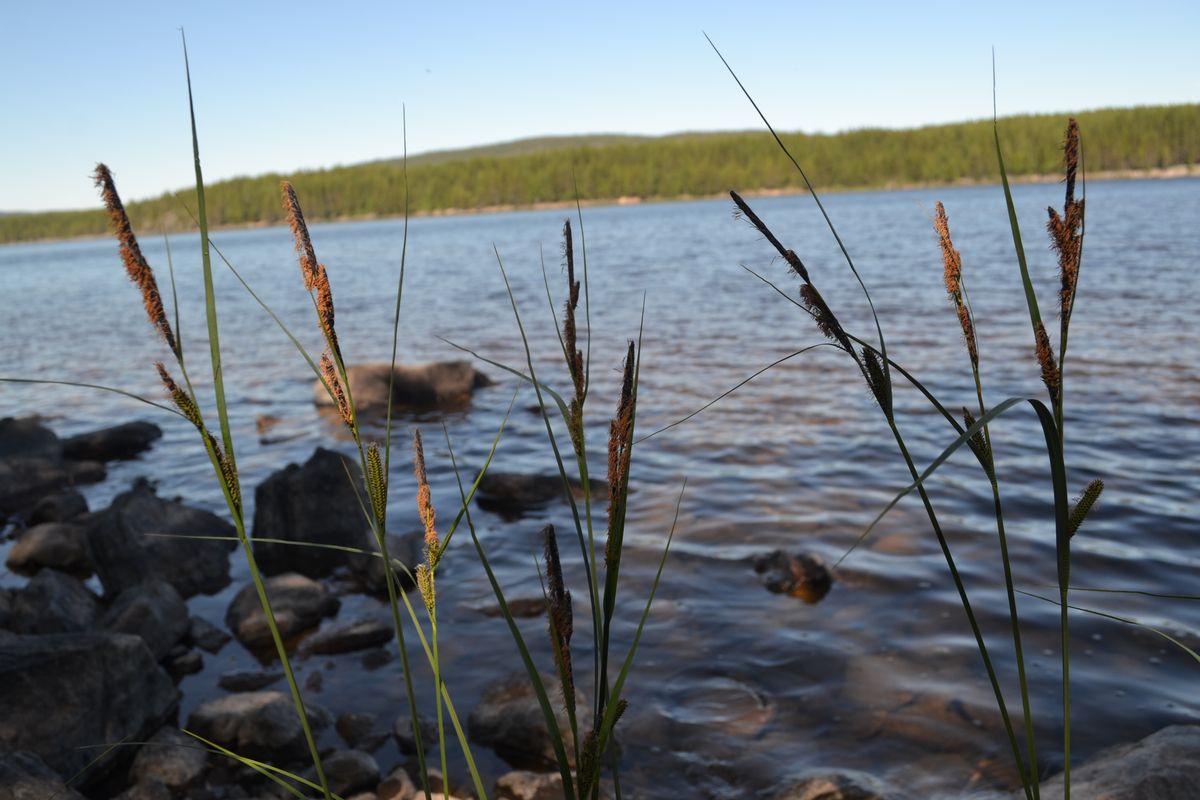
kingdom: Plantae
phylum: Tracheophyta
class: Liliopsida
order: Poales
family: Cyperaceae
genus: Carex
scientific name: Carex acuta
